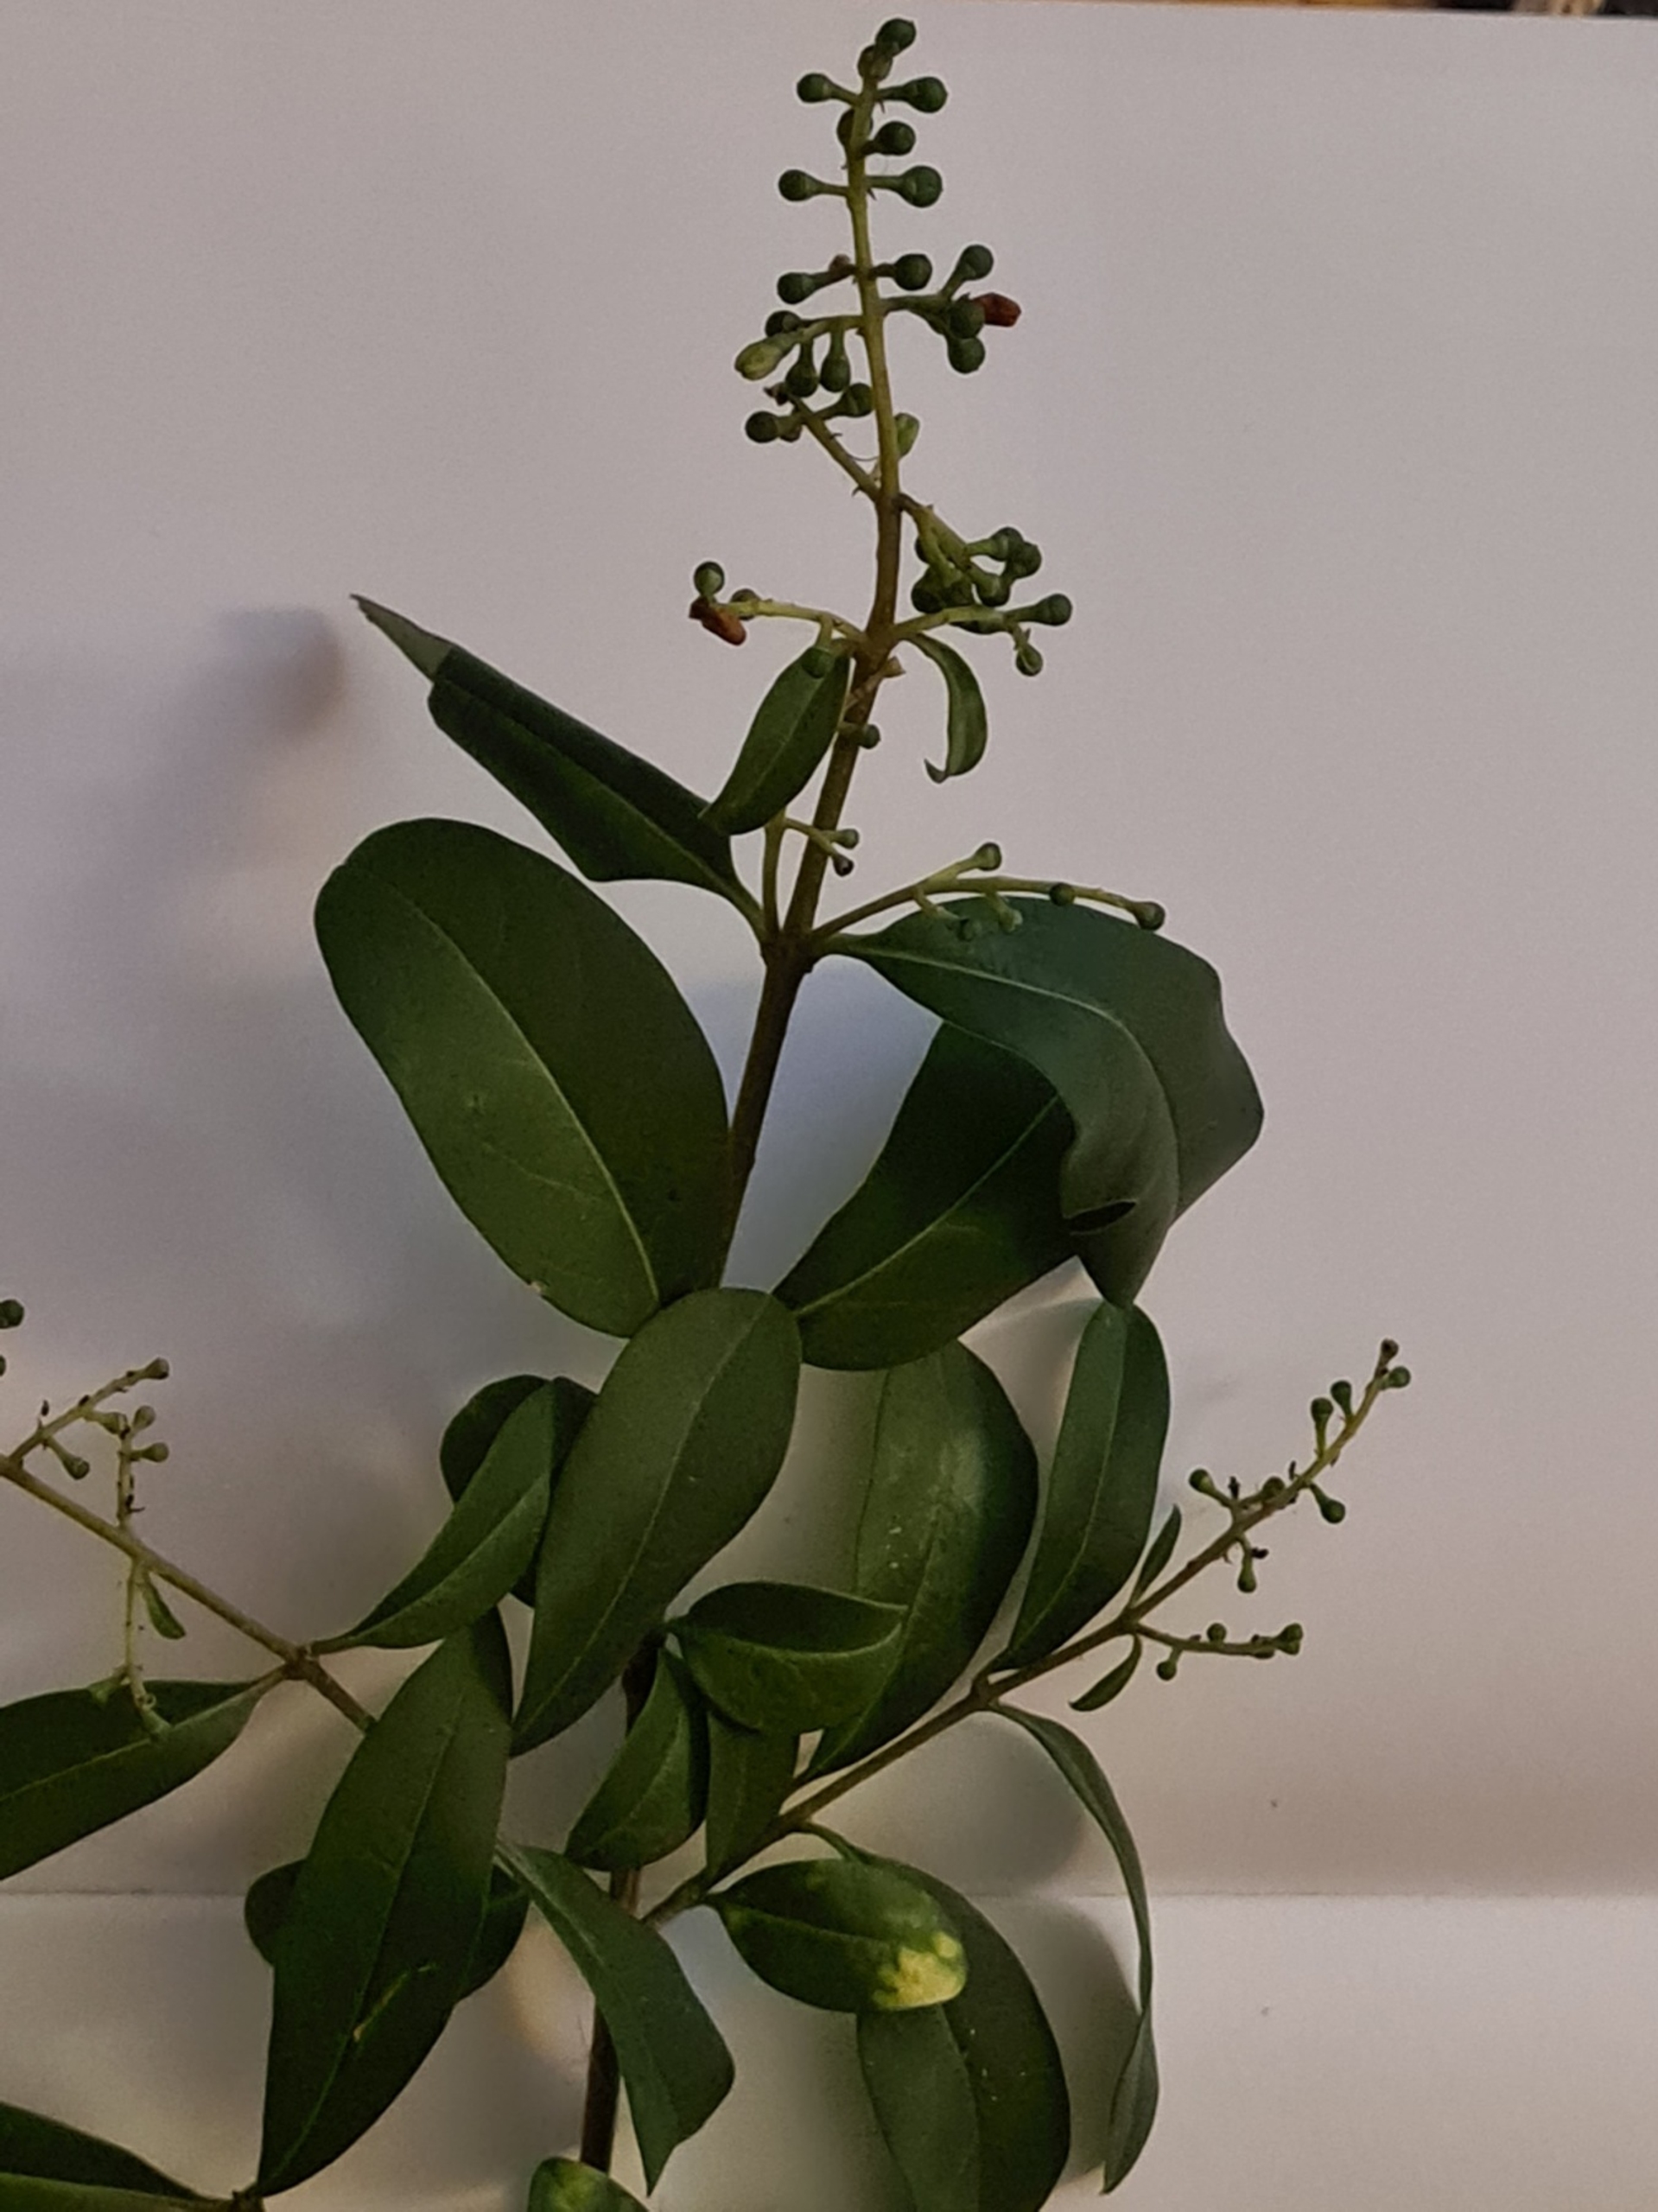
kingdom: Plantae
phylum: Tracheophyta
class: Magnoliopsida
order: Lamiales
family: Oleaceae
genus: Ligustrum
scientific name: Ligustrum vulgare
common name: Liguster
